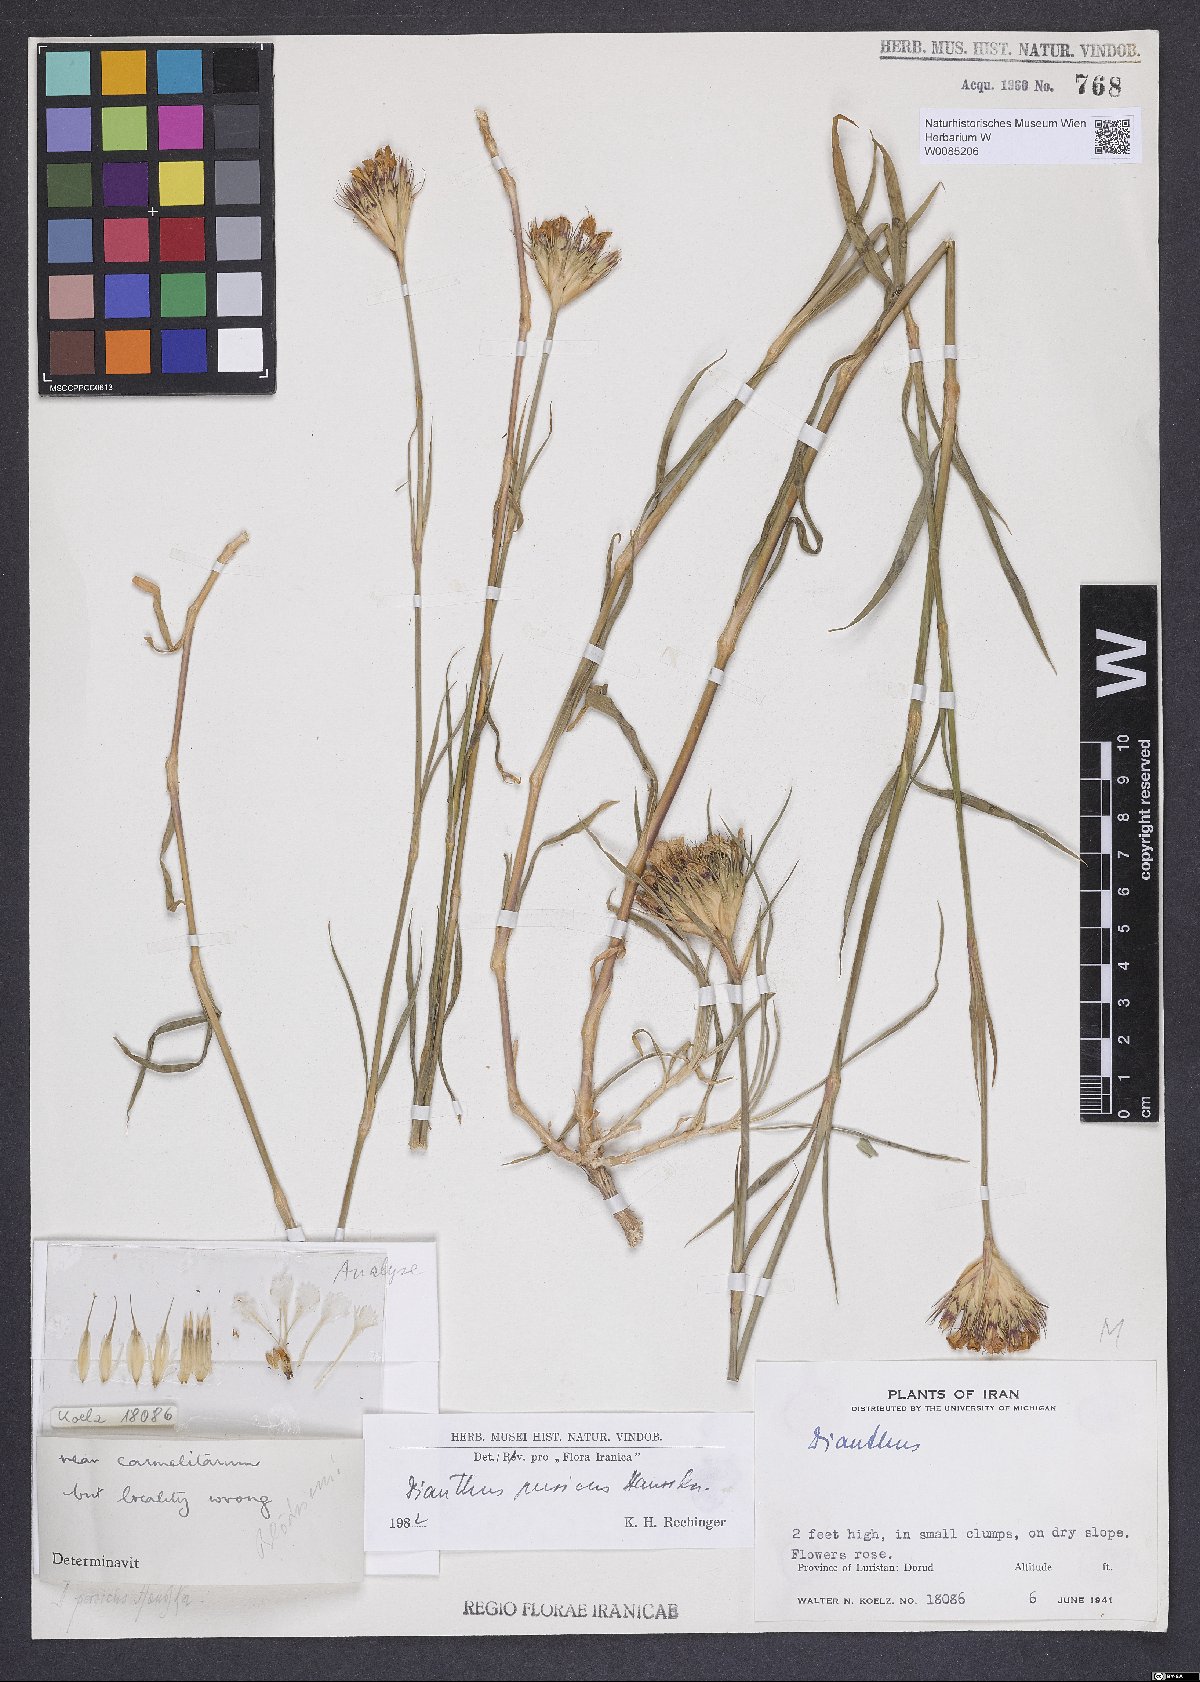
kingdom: Plantae
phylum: Tracheophyta
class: Magnoliopsida
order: Caryophyllales
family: Caryophyllaceae
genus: Dianthus
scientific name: Dianthus persicus
